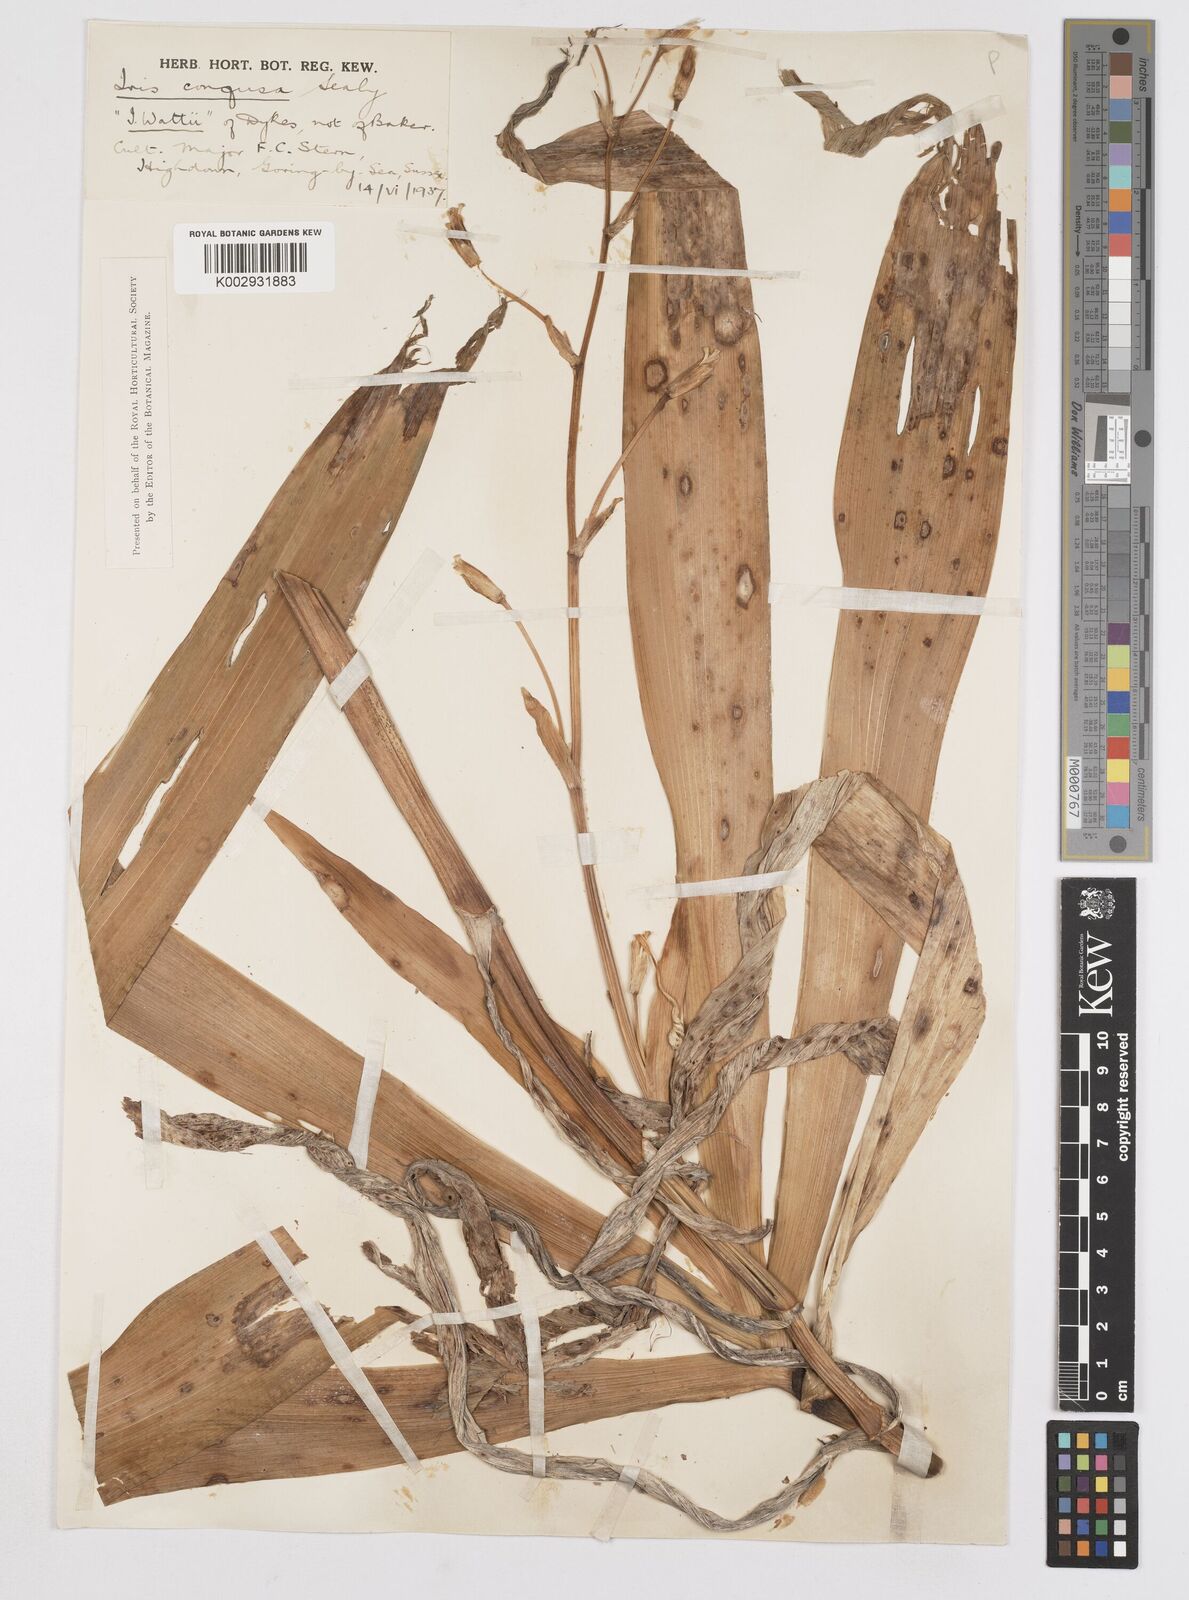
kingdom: Plantae
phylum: Tracheophyta
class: Liliopsida
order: Asparagales
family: Iridaceae
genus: Iris
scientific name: Iris confusa
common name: Flat bamboo-orchid
